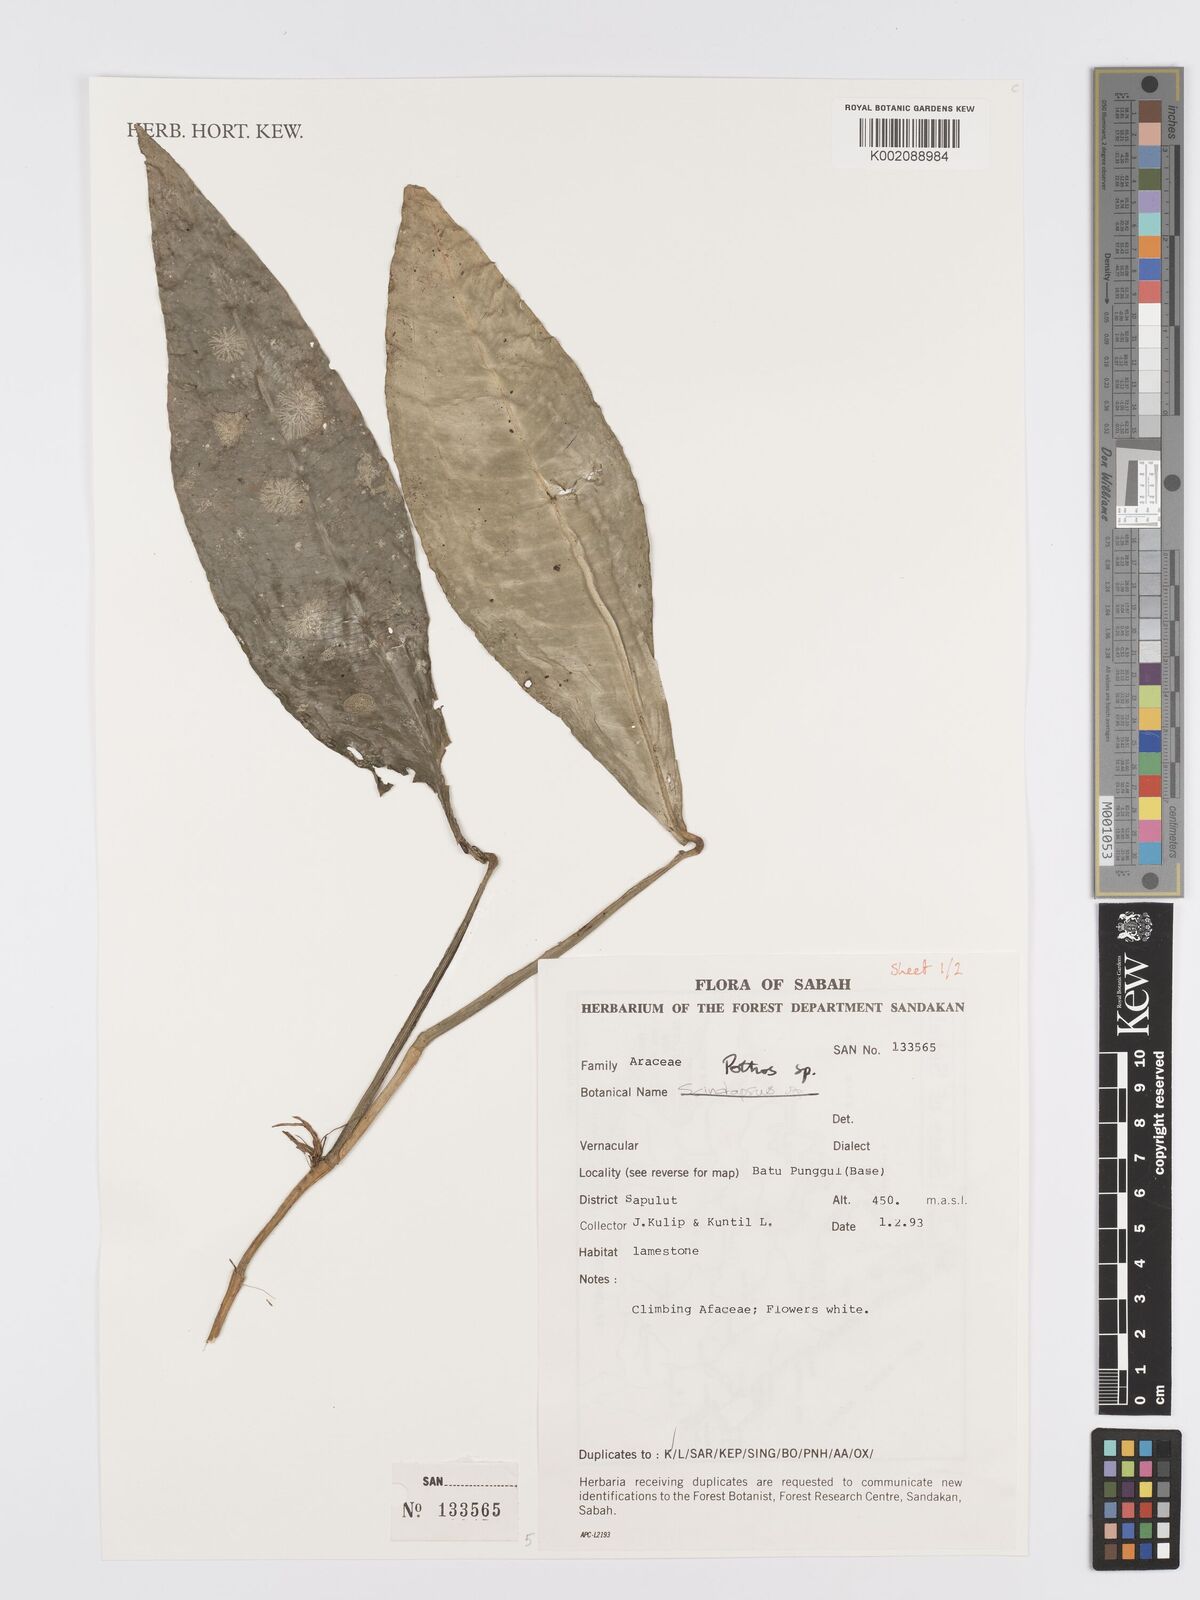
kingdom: Plantae
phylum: Tracheophyta
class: Liliopsida
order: Alismatales
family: Araceae
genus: Pothos
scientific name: Pothos
